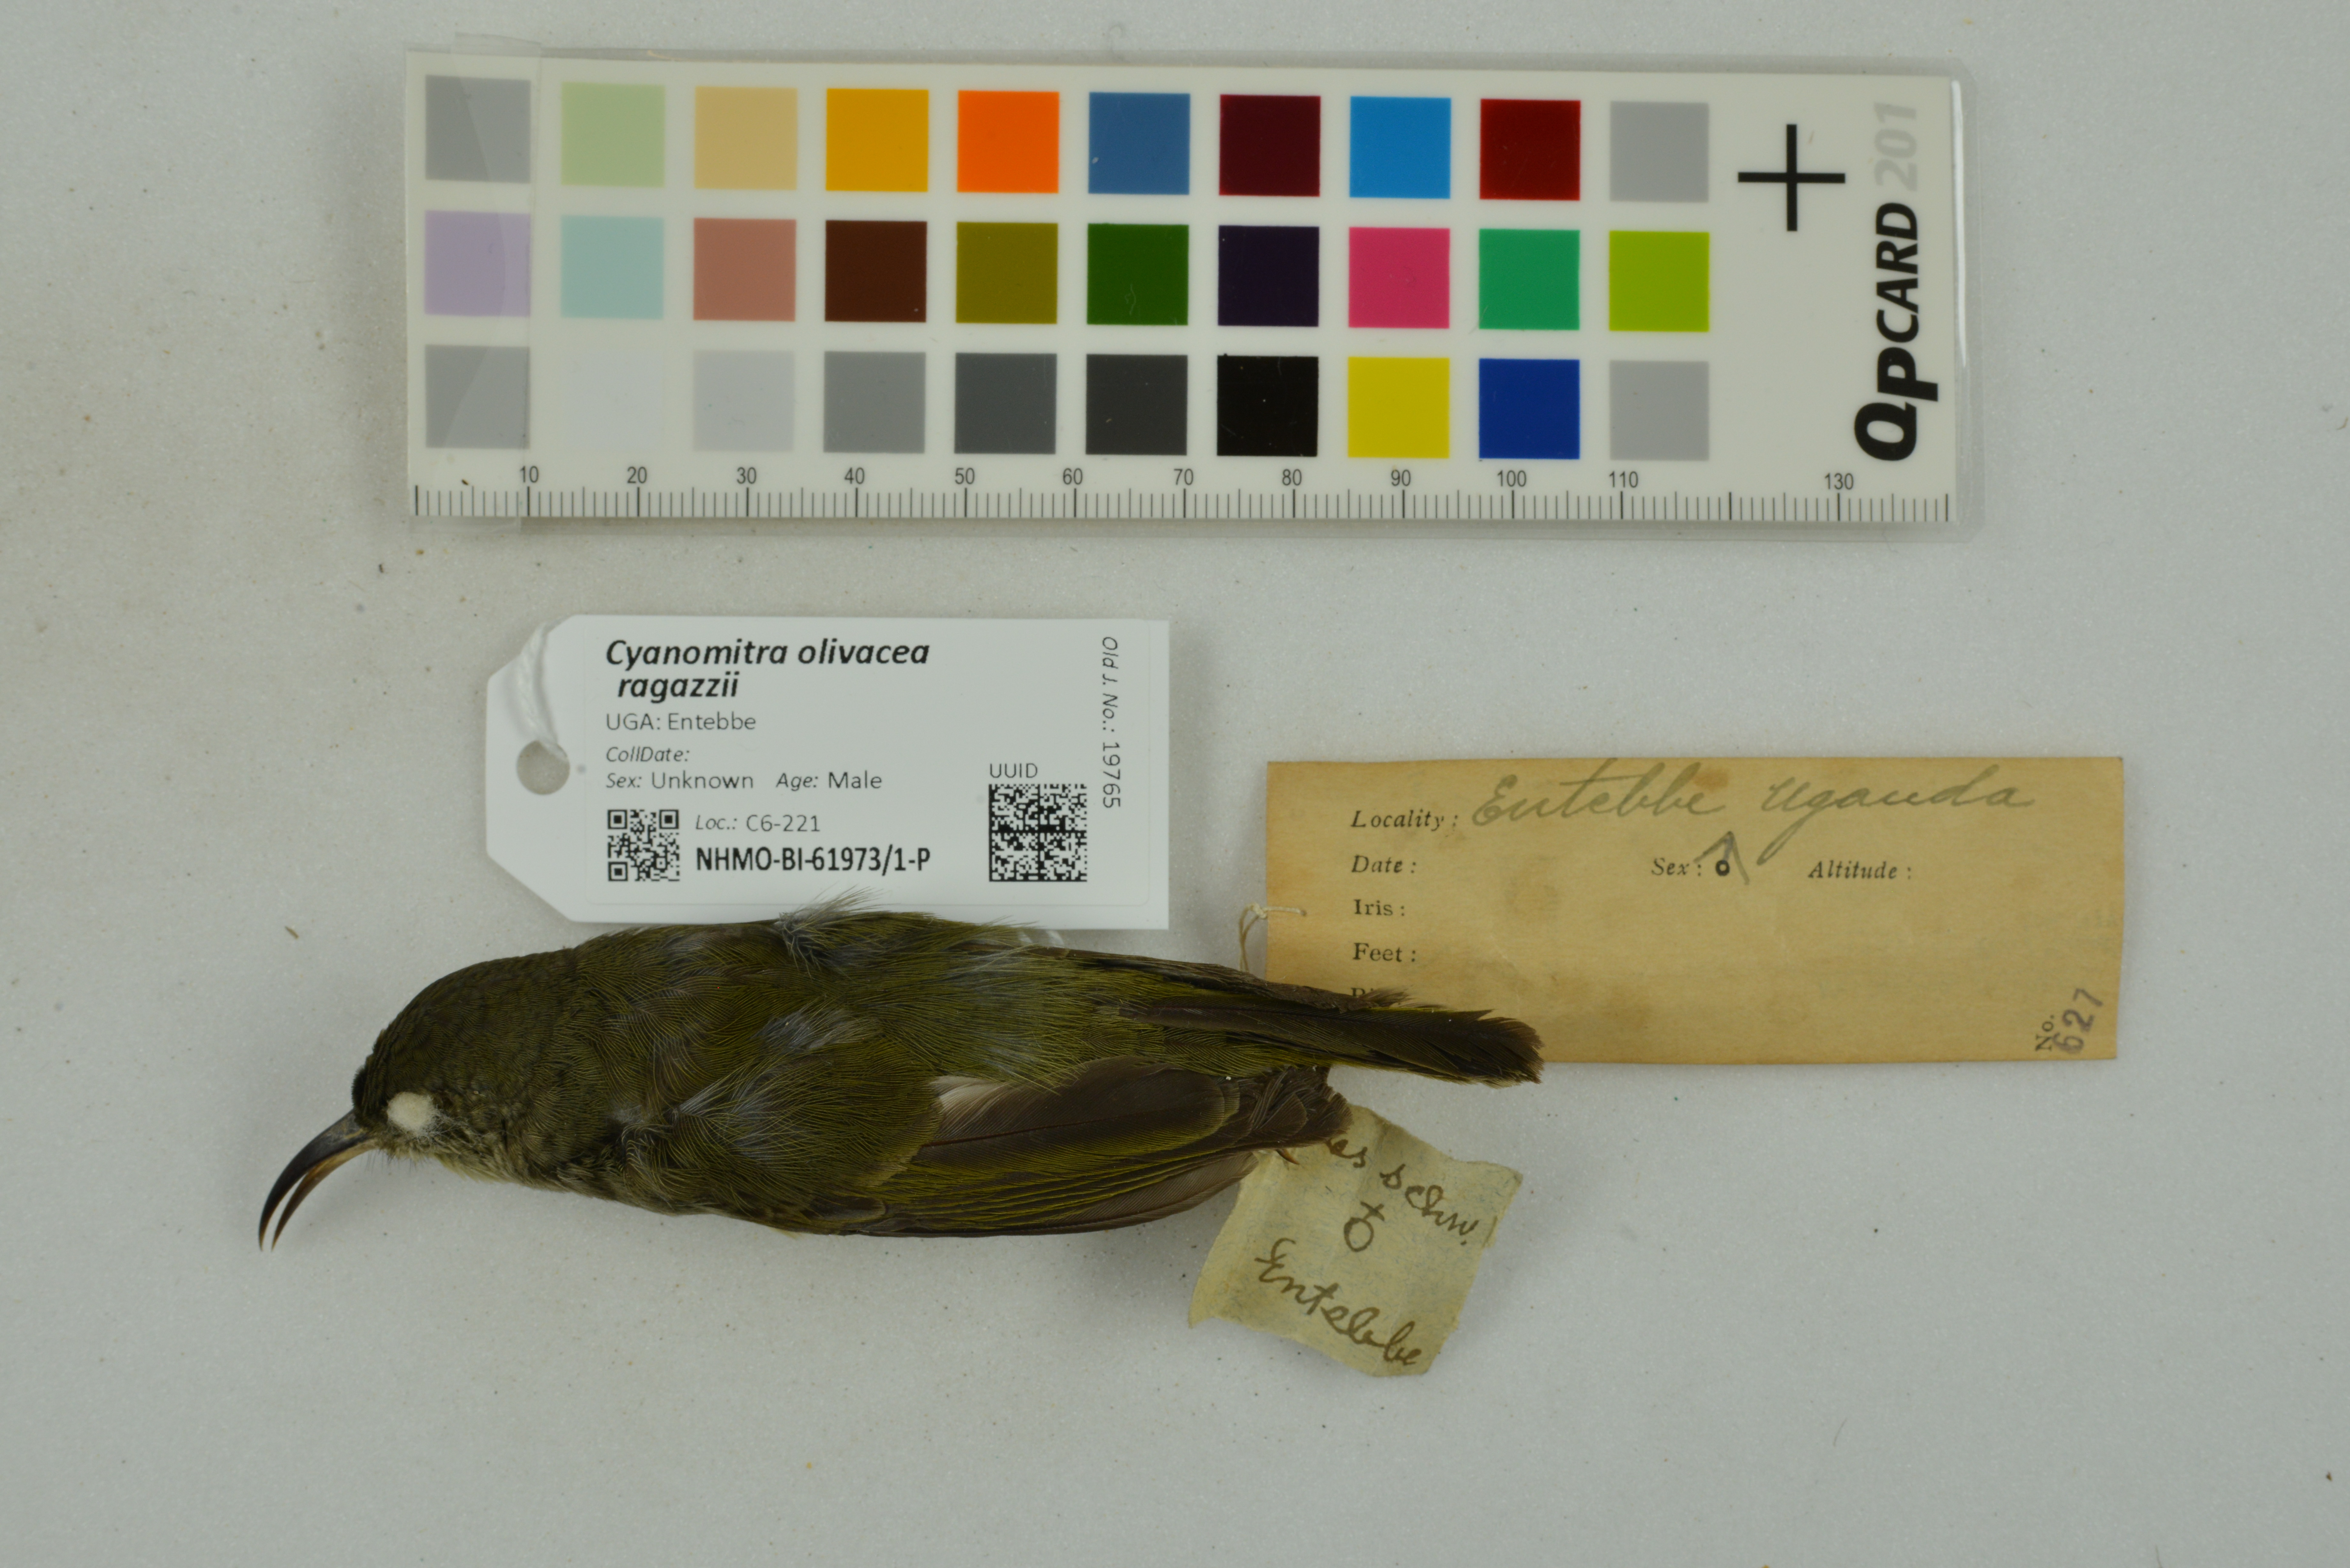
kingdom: Animalia
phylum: Chordata
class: Aves
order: Passeriformes
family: Nectariniidae
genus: Cyanomitra
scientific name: Cyanomitra olivacea
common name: Olive sunbird
